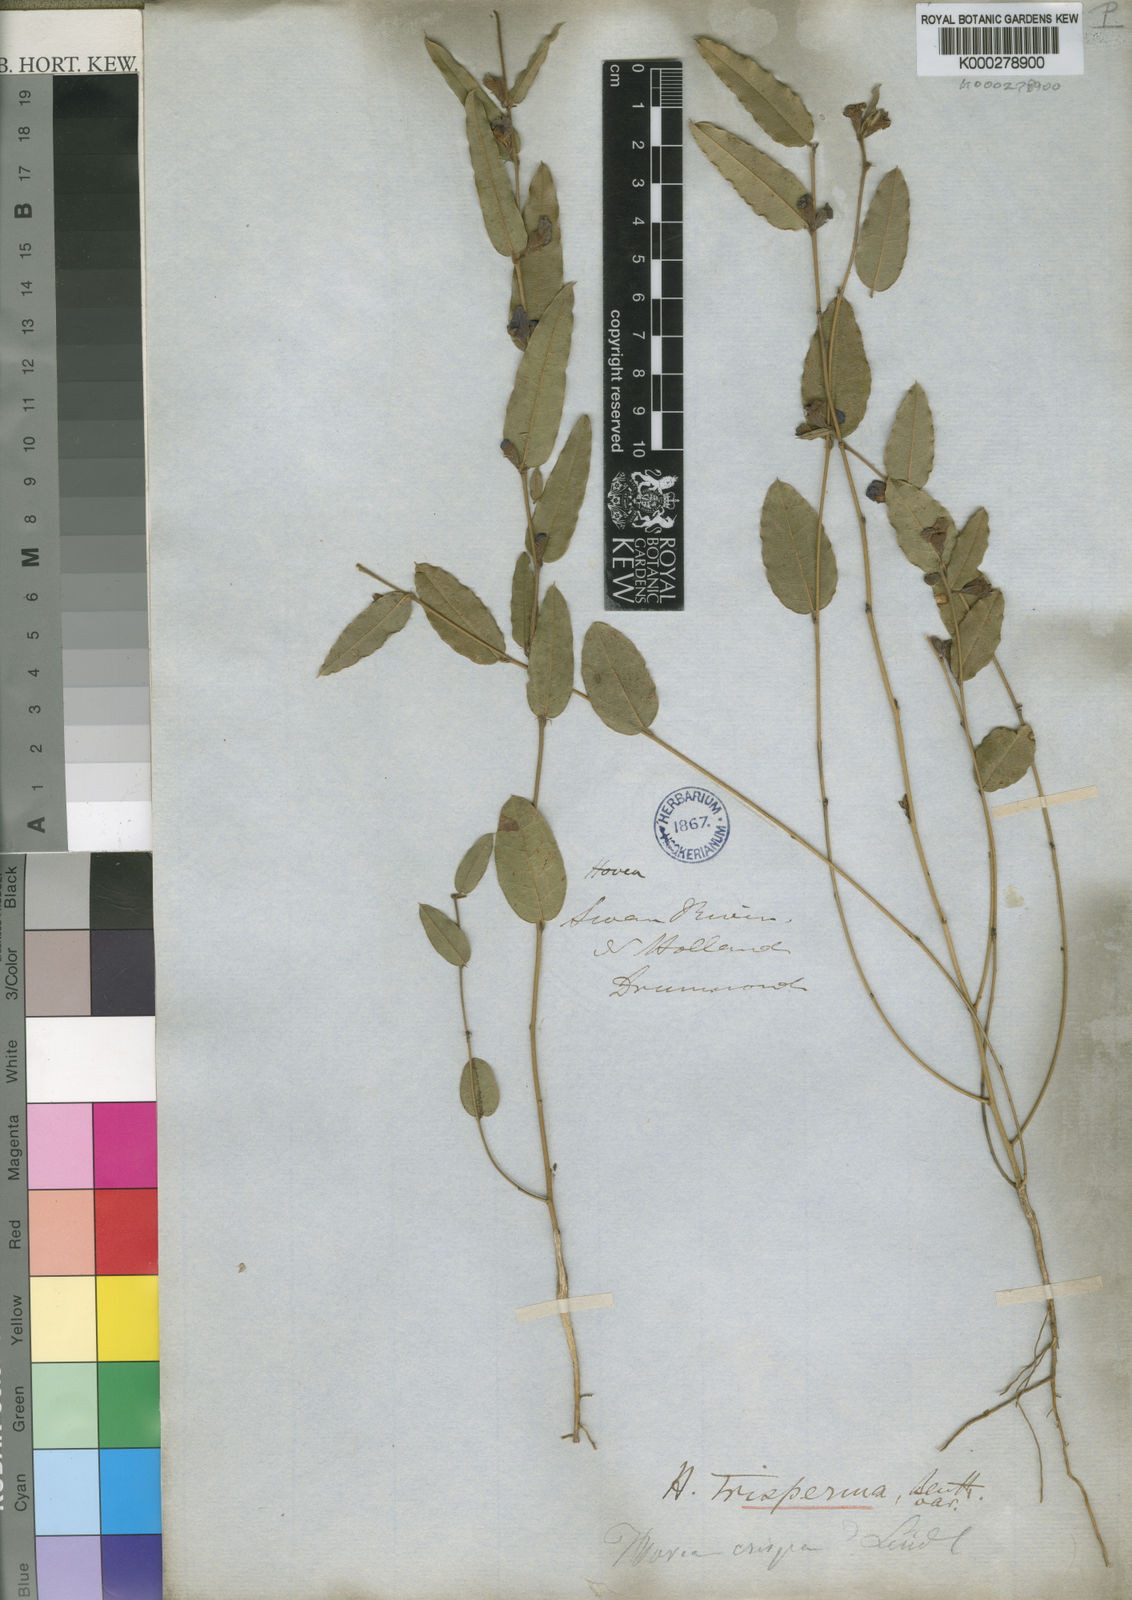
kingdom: Plantae
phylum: Tracheophyta
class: Magnoliopsida
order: Fabales
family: Fabaceae
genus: Hovea
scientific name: Hovea trisperma
